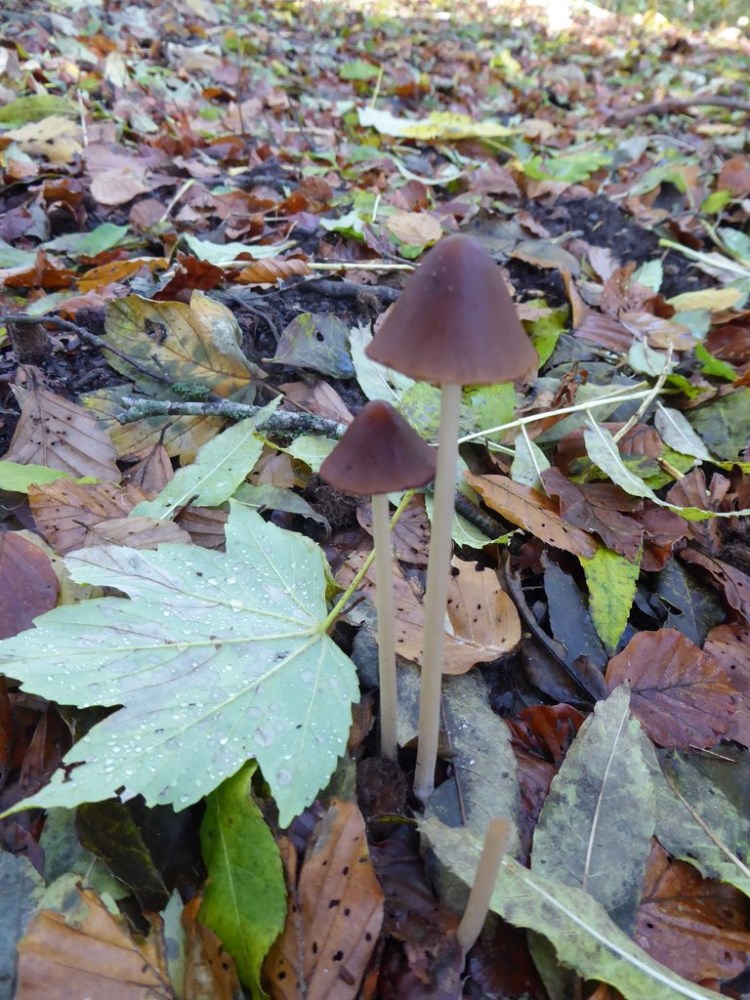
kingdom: Fungi
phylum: Basidiomycota
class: Agaricomycetes
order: Agaricales
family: Psathyrellaceae
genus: Parasola
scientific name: Parasola conopilea
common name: kegle-hjulhat
